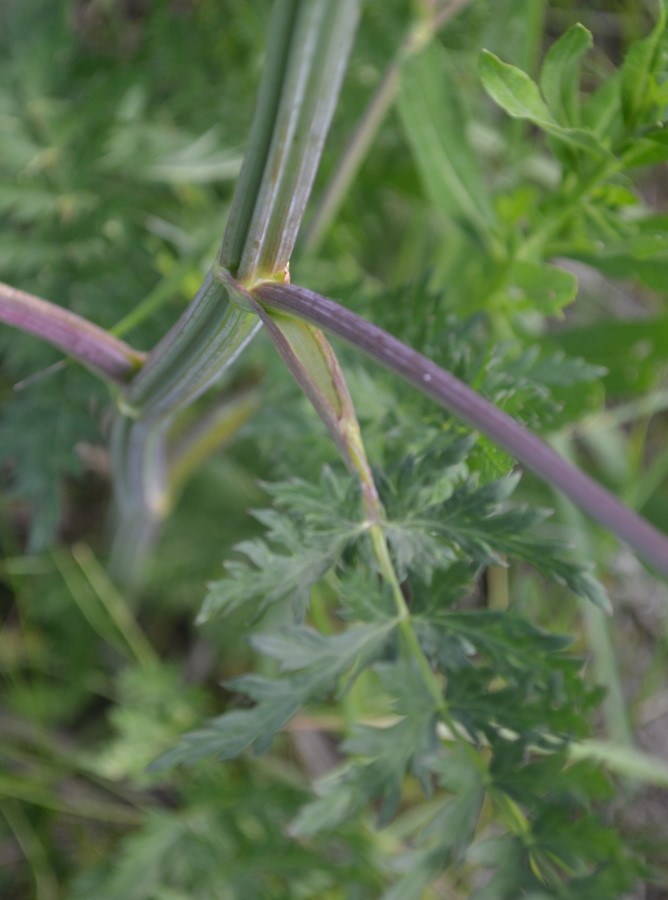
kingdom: Plantae
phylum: Tracheophyta
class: Magnoliopsida
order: Apiales
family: Apiaceae
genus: Selinum
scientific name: Selinum carvifolia
